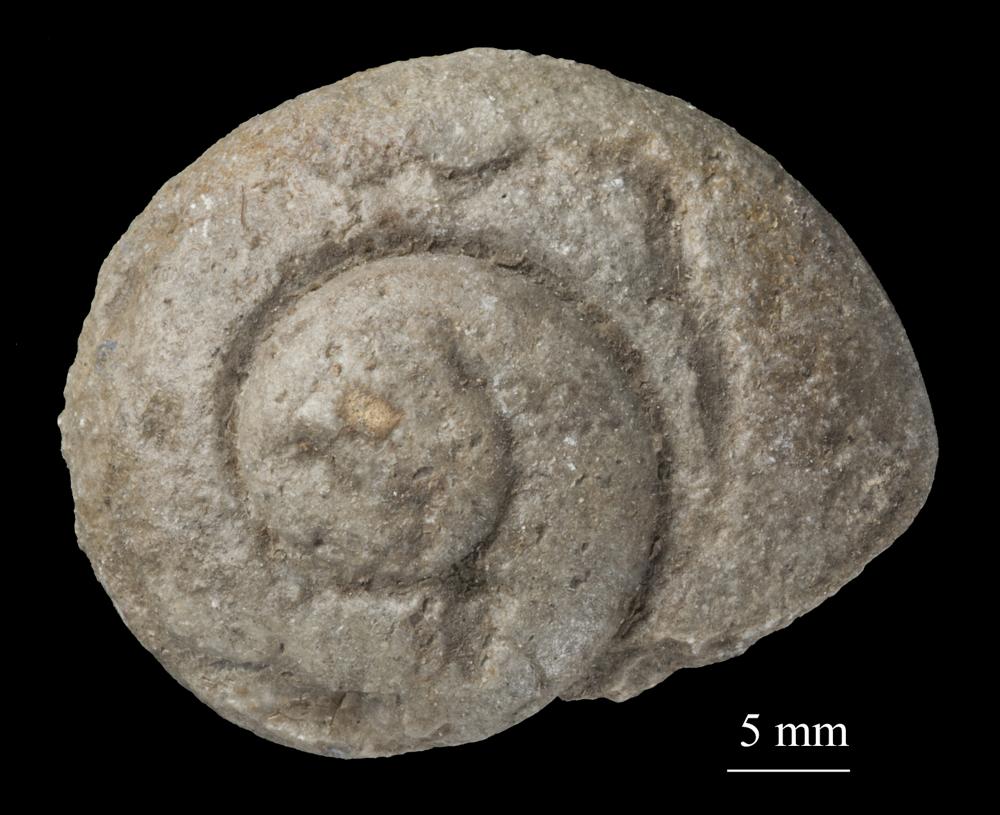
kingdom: Animalia
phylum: Mollusca
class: Gastropoda
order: Neogastropoda
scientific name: Neogastropoda
